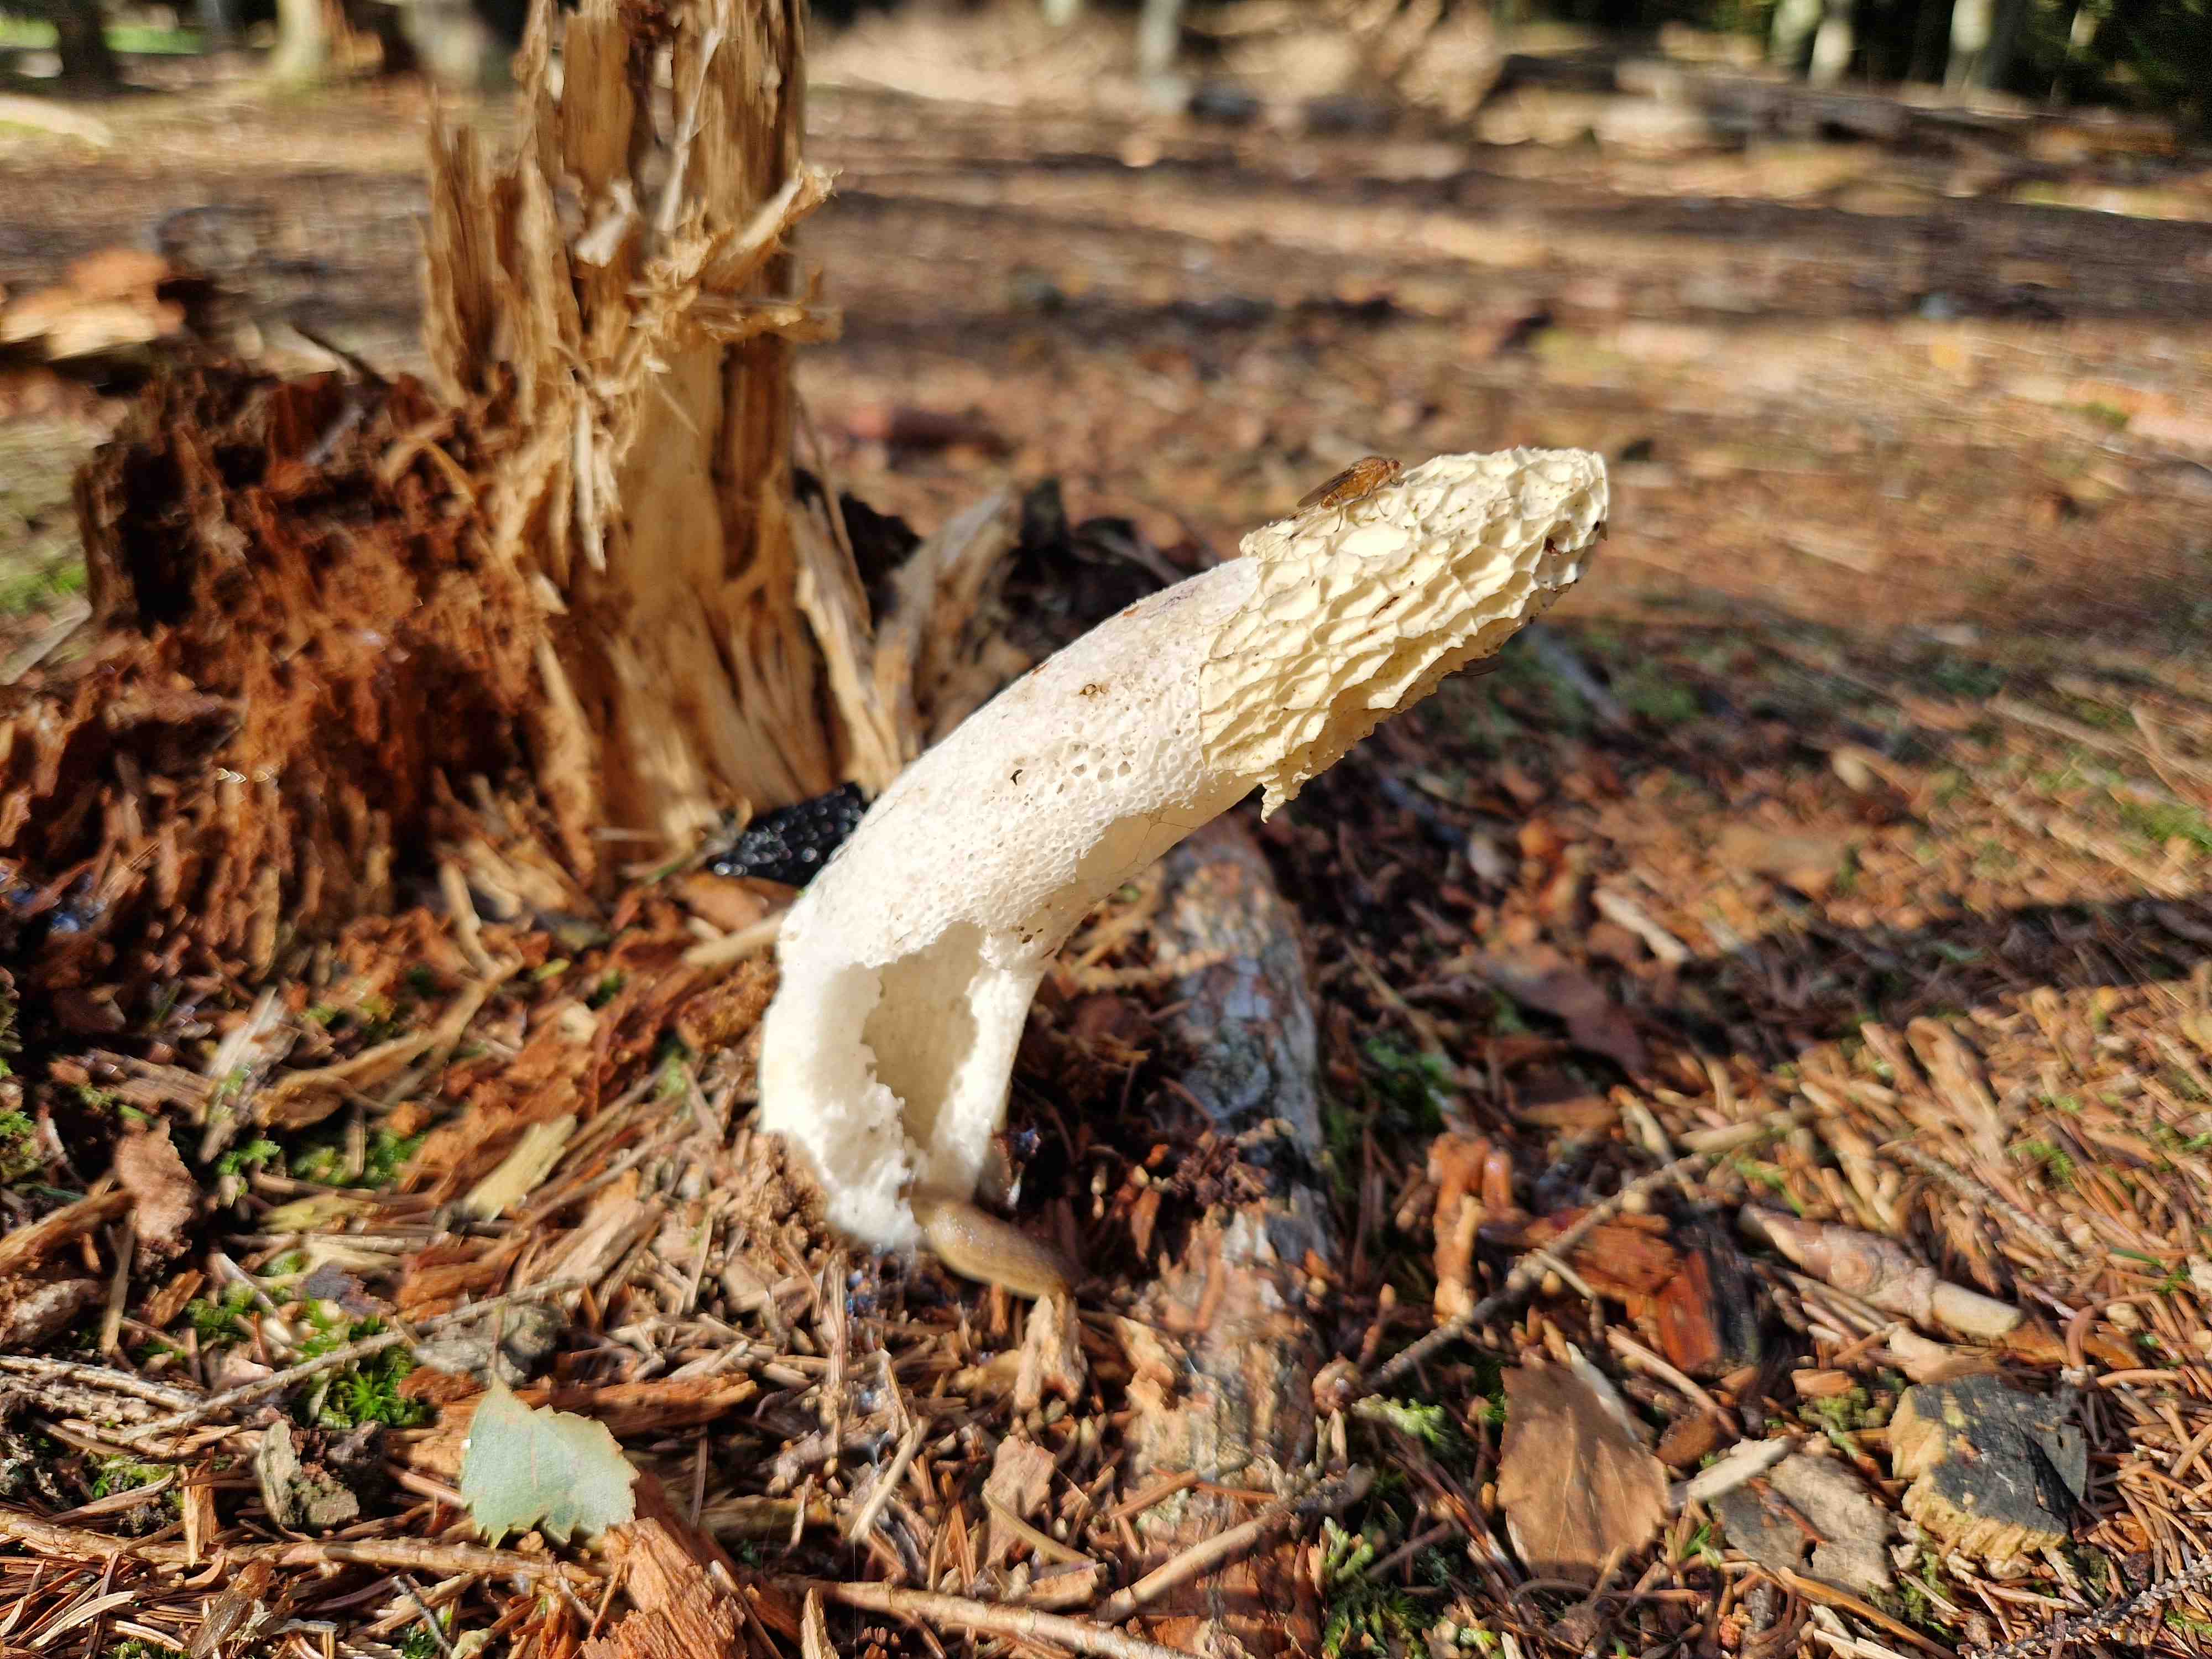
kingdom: Fungi
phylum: Basidiomycota
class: Agaricomycetes
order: Phallales
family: Phallaceae
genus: Phallus
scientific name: Phallus impudicus
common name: almindelig stinksvamp
